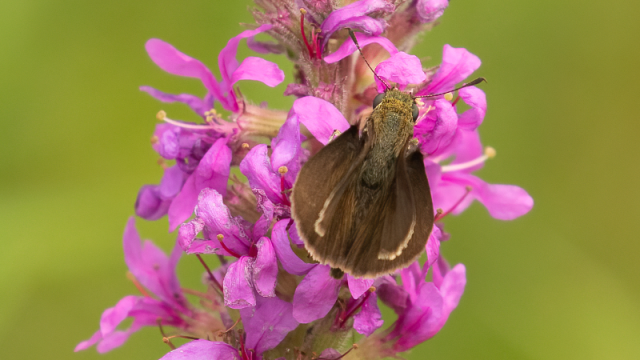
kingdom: Animalia
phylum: Arthropoda
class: Insecta
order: Lepidoptera
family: Hesperiidae
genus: Euphyes
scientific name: Euphyes vestris
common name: Dun Skipper
